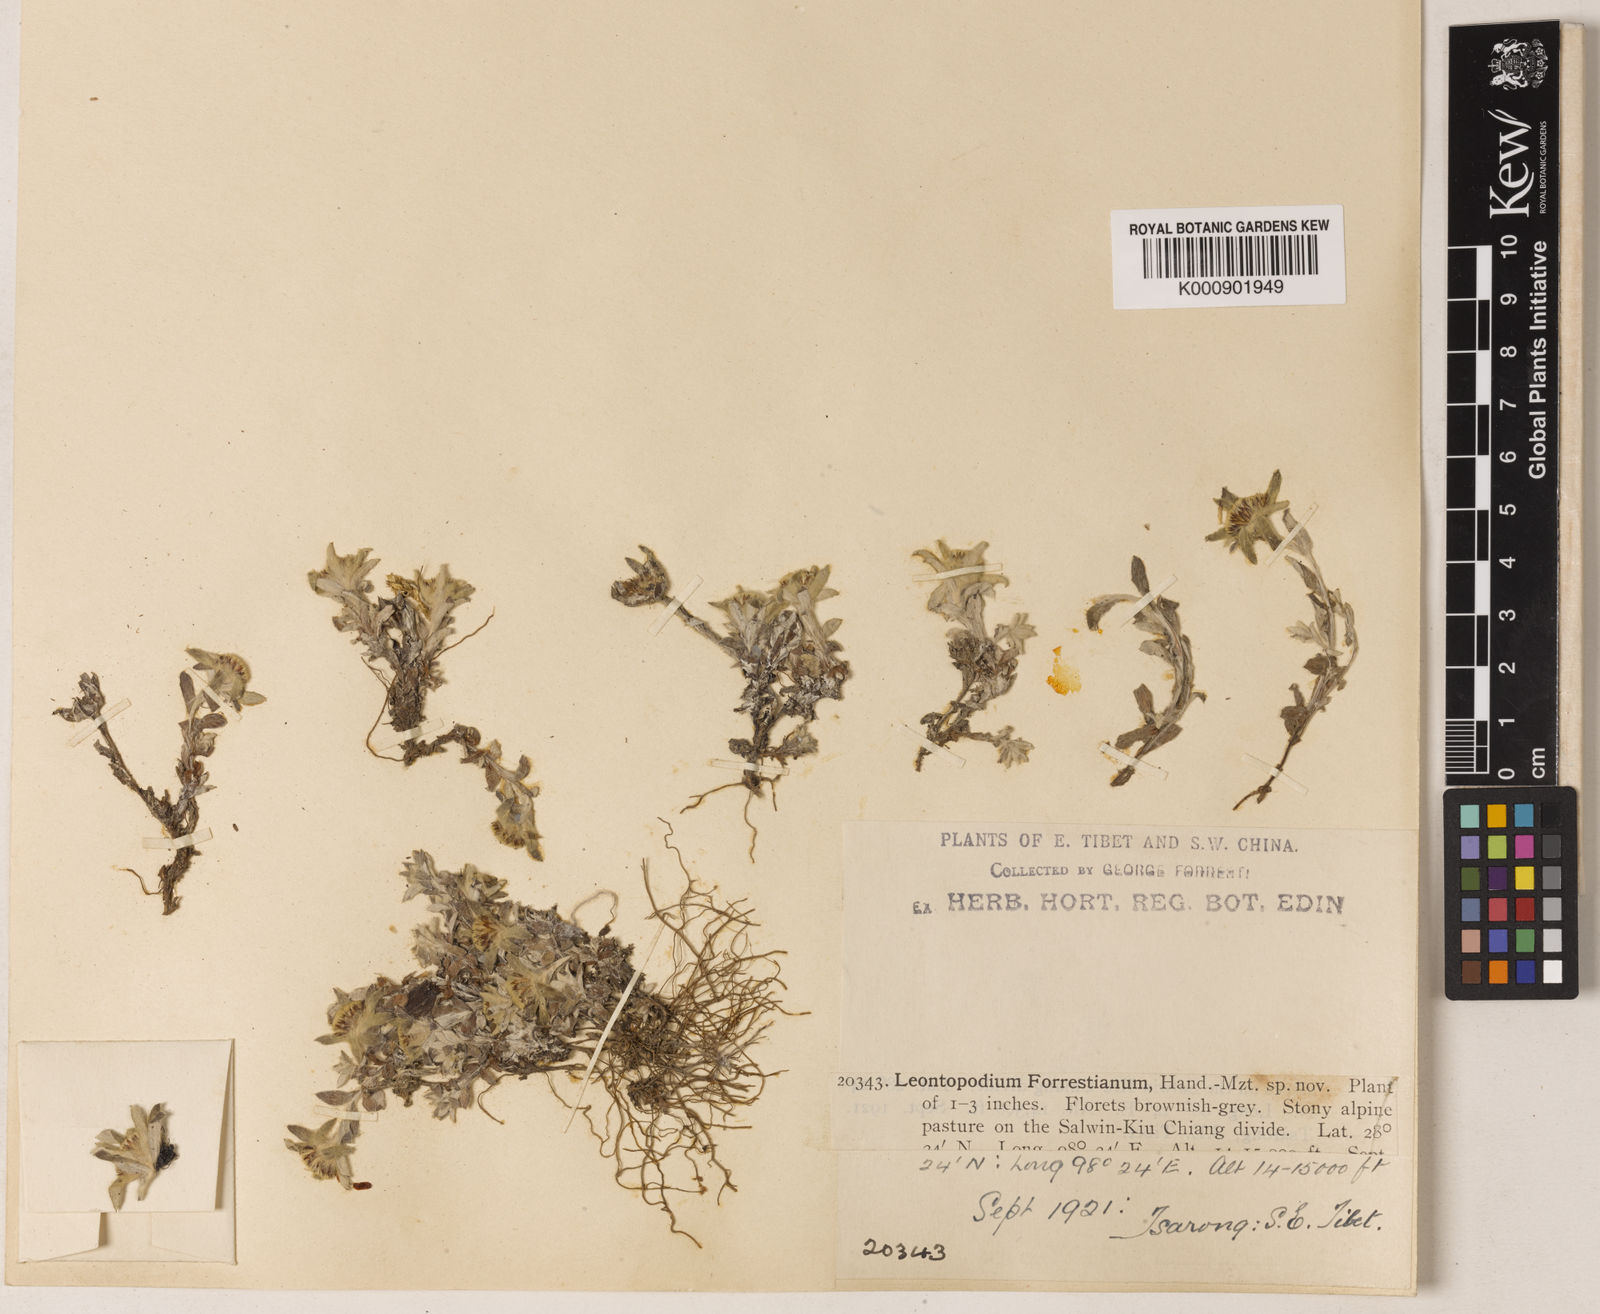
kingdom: Plantae
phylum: Tracheophyta
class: Magnoliopsida
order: Asterales
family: Asteraceae
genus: Leontopodium
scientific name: Leontopodium forrestianum
